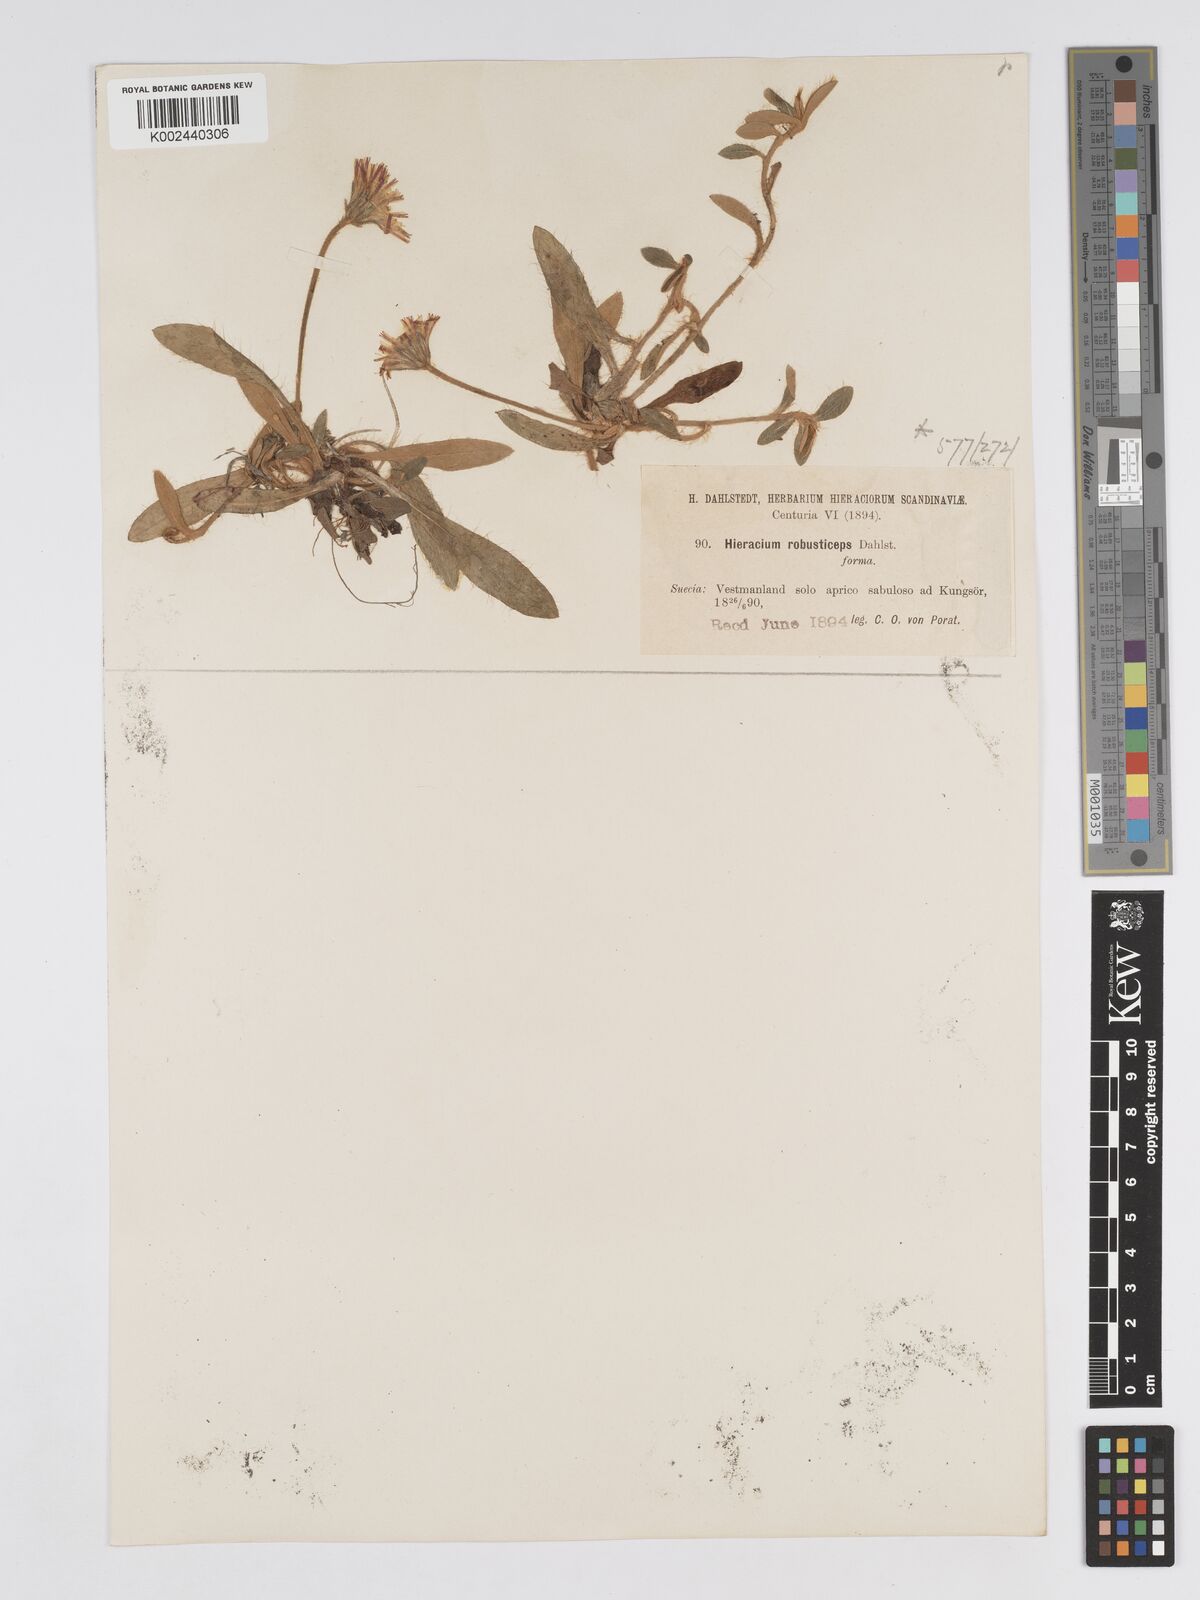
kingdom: Plantae
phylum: Tracheophyta
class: Magnoliopsida
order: Asterales
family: Asteraceae
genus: Pilosella
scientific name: Pilosella officinarum
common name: Mouse-ear hawkweed
